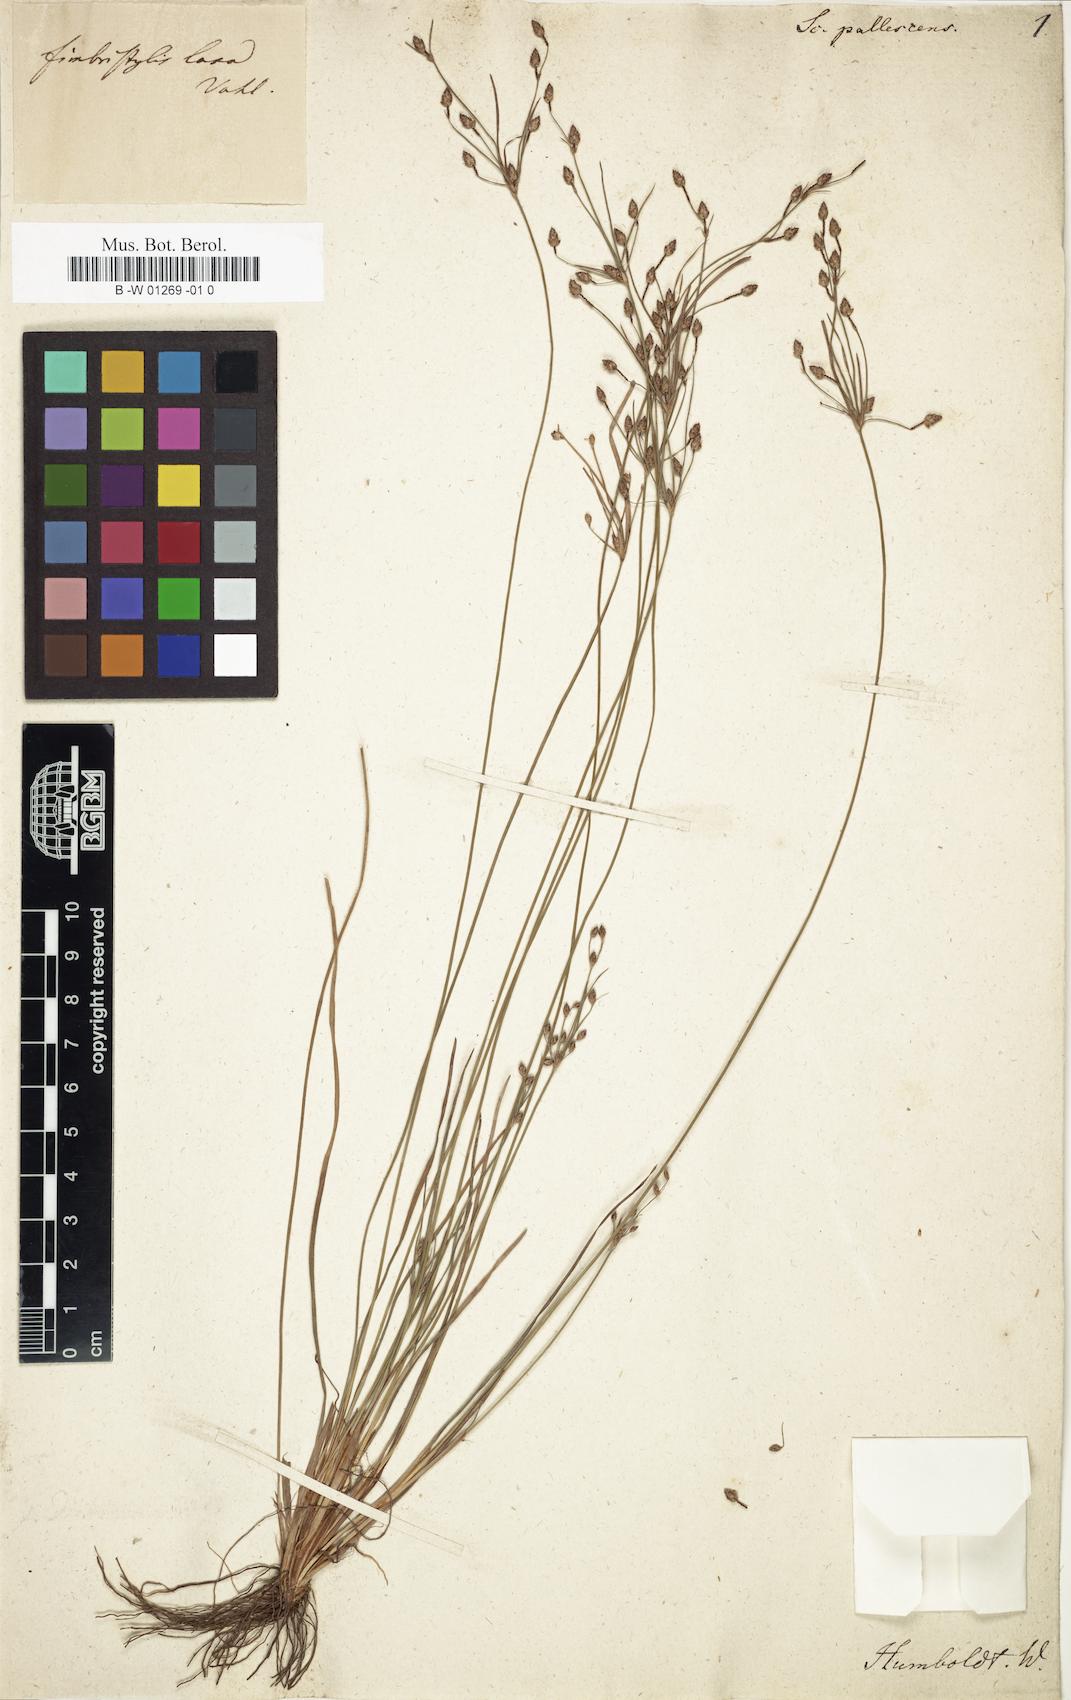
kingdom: Plantae
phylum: Tracheophyta
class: Liliopsida
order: Poales
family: Cyperaceae
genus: Fimbristylis
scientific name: Fimbristylis dichotoma
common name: Forked fimbry
